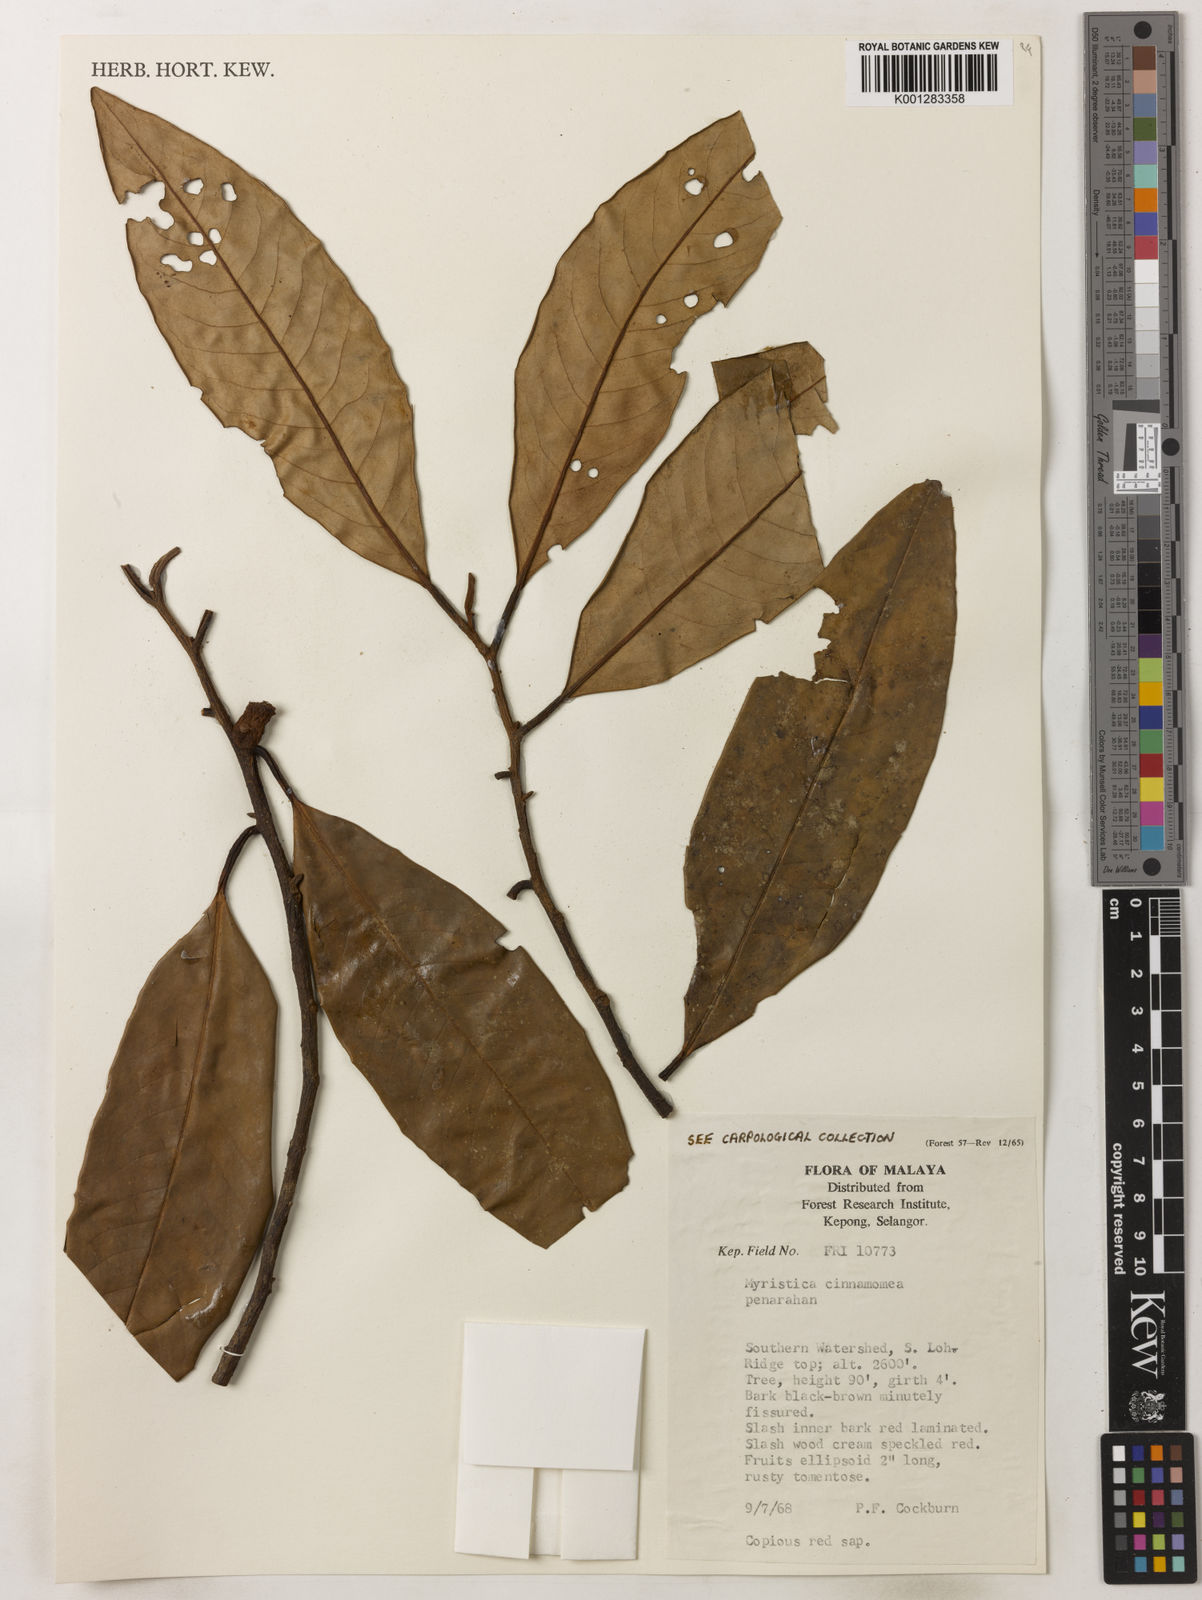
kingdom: Plantae
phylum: Tracheophyta
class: Magnoliopsida
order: Magnoliales
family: Myristicaceae
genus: Myristica
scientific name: Myristica cinnamomea
